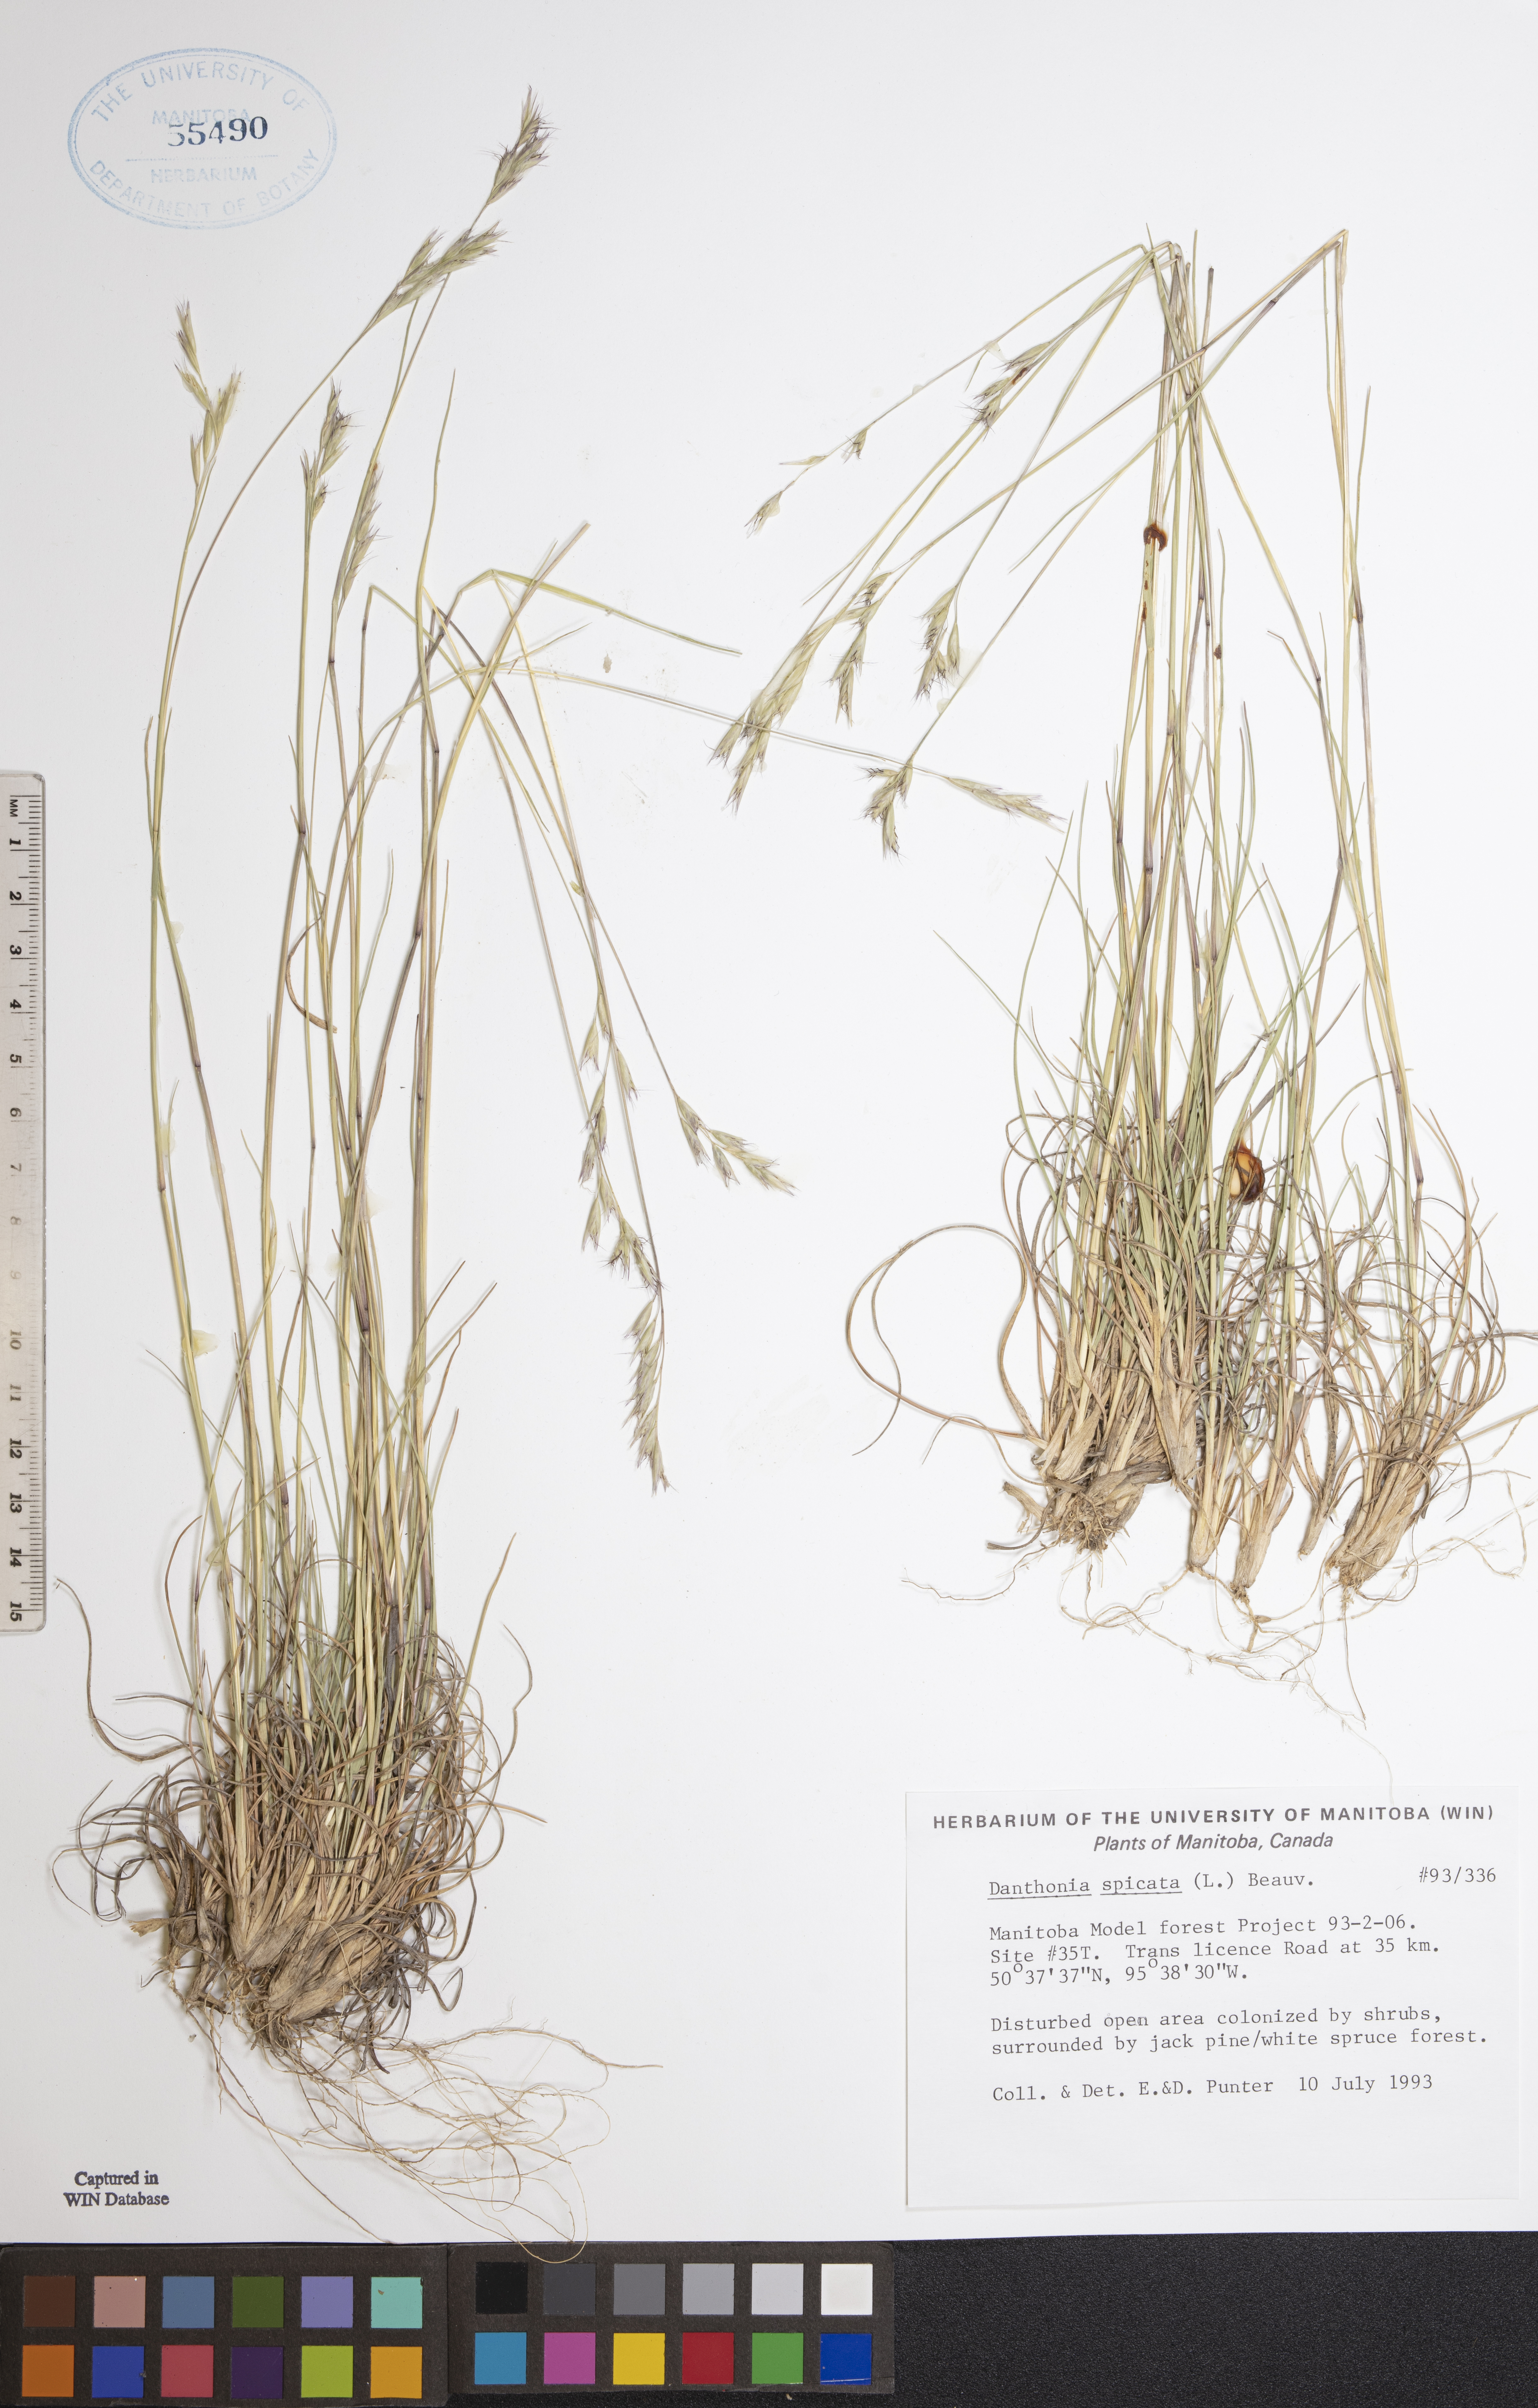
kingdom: Plantae
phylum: Tracheophyta
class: Liliopsida
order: Poales
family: Poaceae
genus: Danthonia
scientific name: Danthonia spicata
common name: Common wild oatgrass
